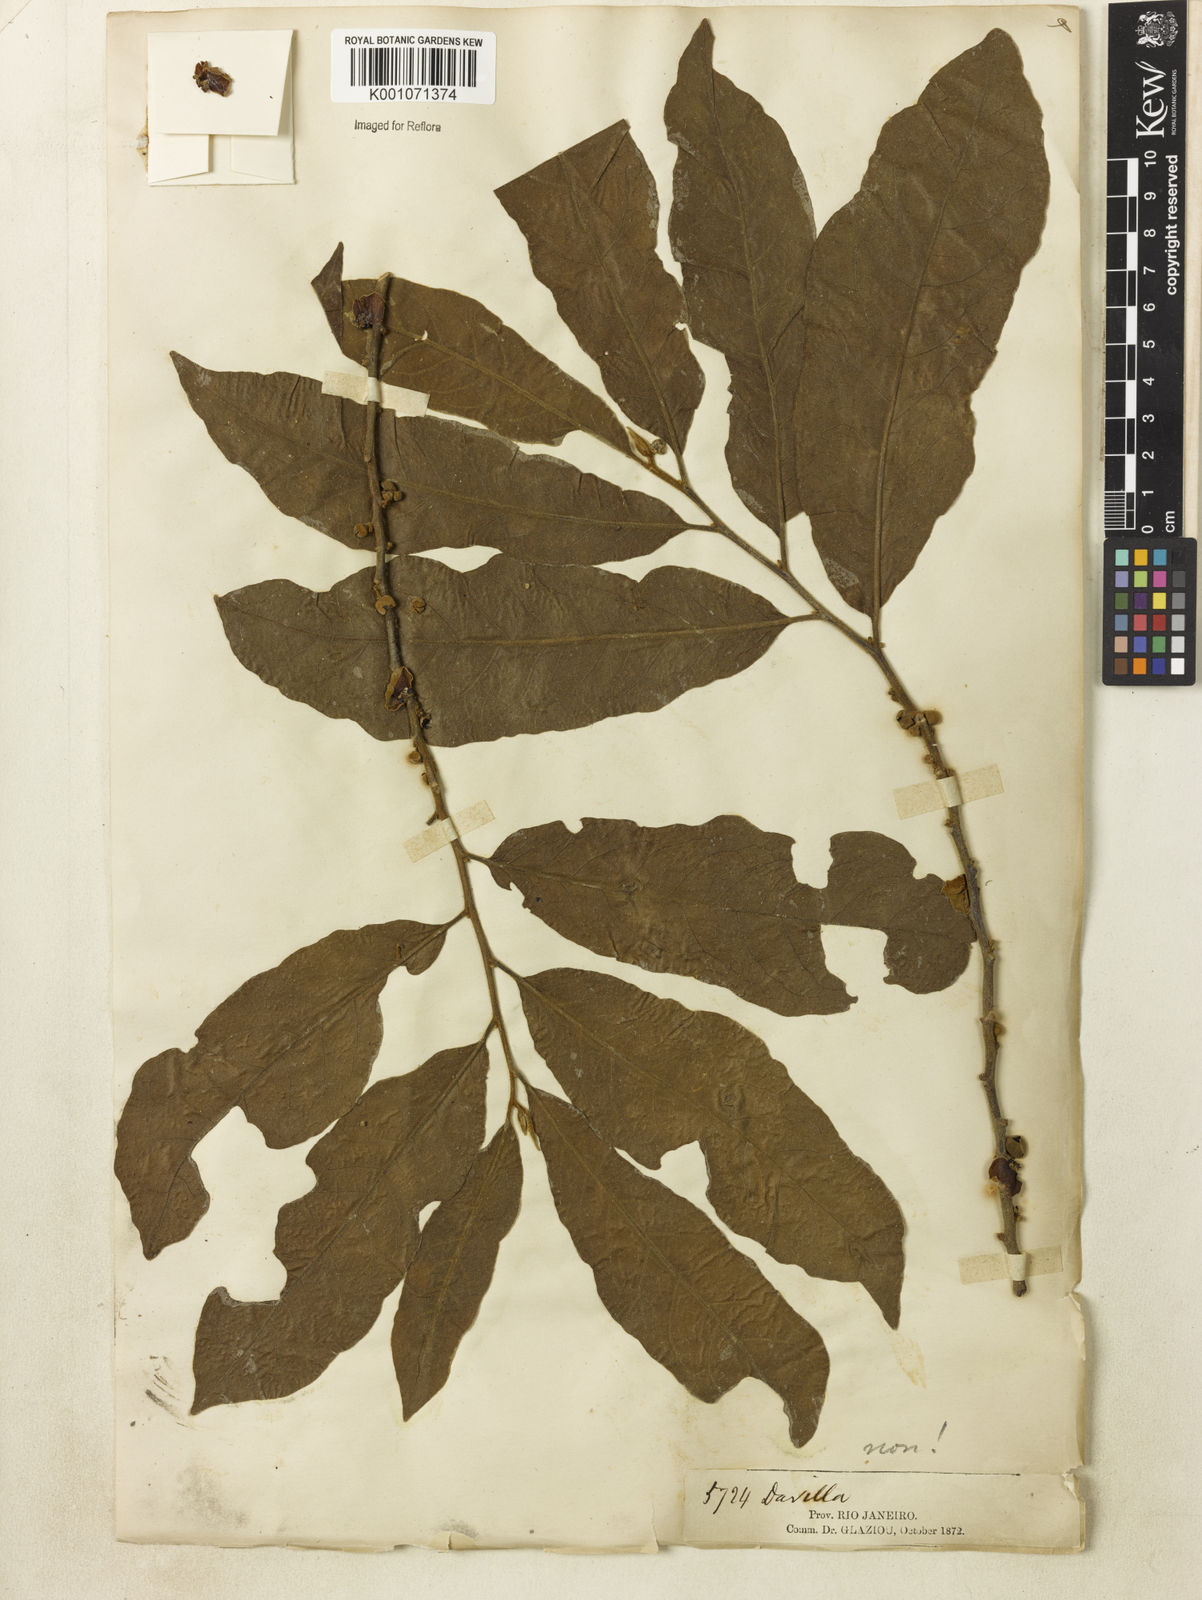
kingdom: Plantae
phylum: Tracheophyta
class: Magnoliopsida
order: Dilleniales
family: Dilleniaceae
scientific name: Dilleniaceae
